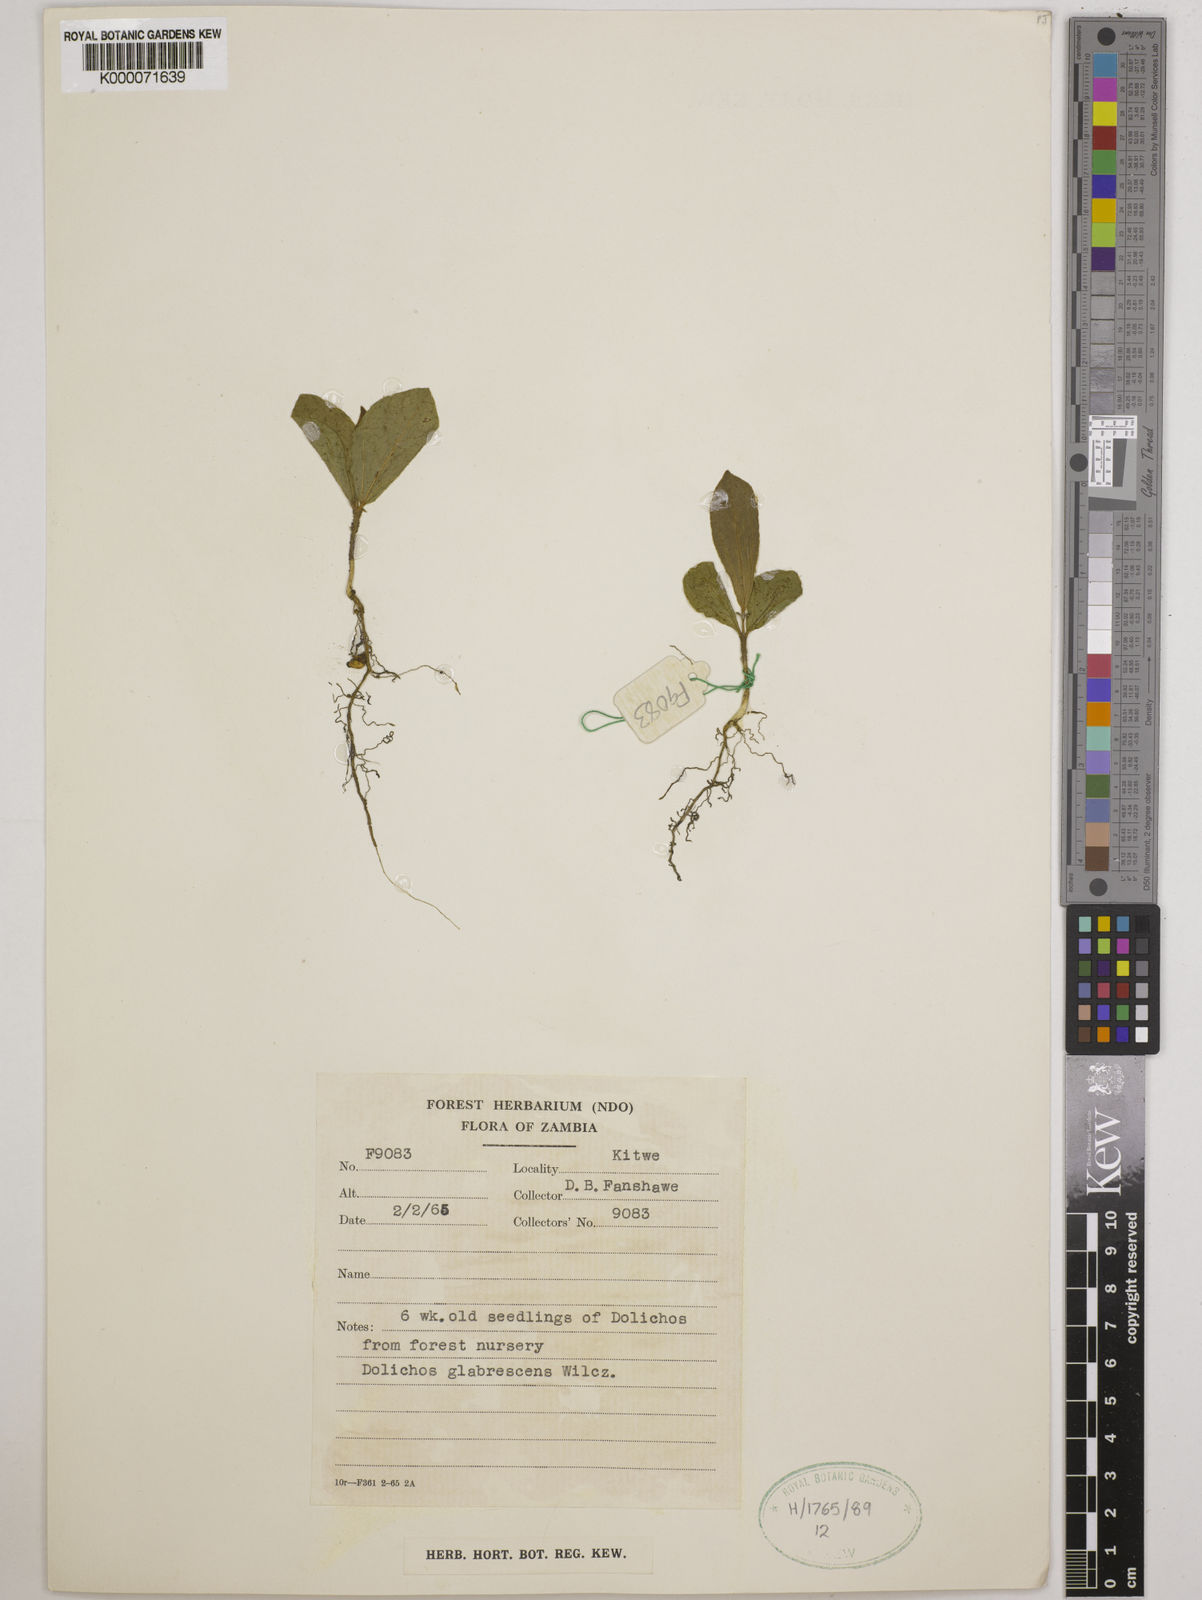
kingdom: Plantae
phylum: Tracheophyta
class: Magnoliopsida
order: Fabales
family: Fabaceae
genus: Dolichos
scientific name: Dolichos
